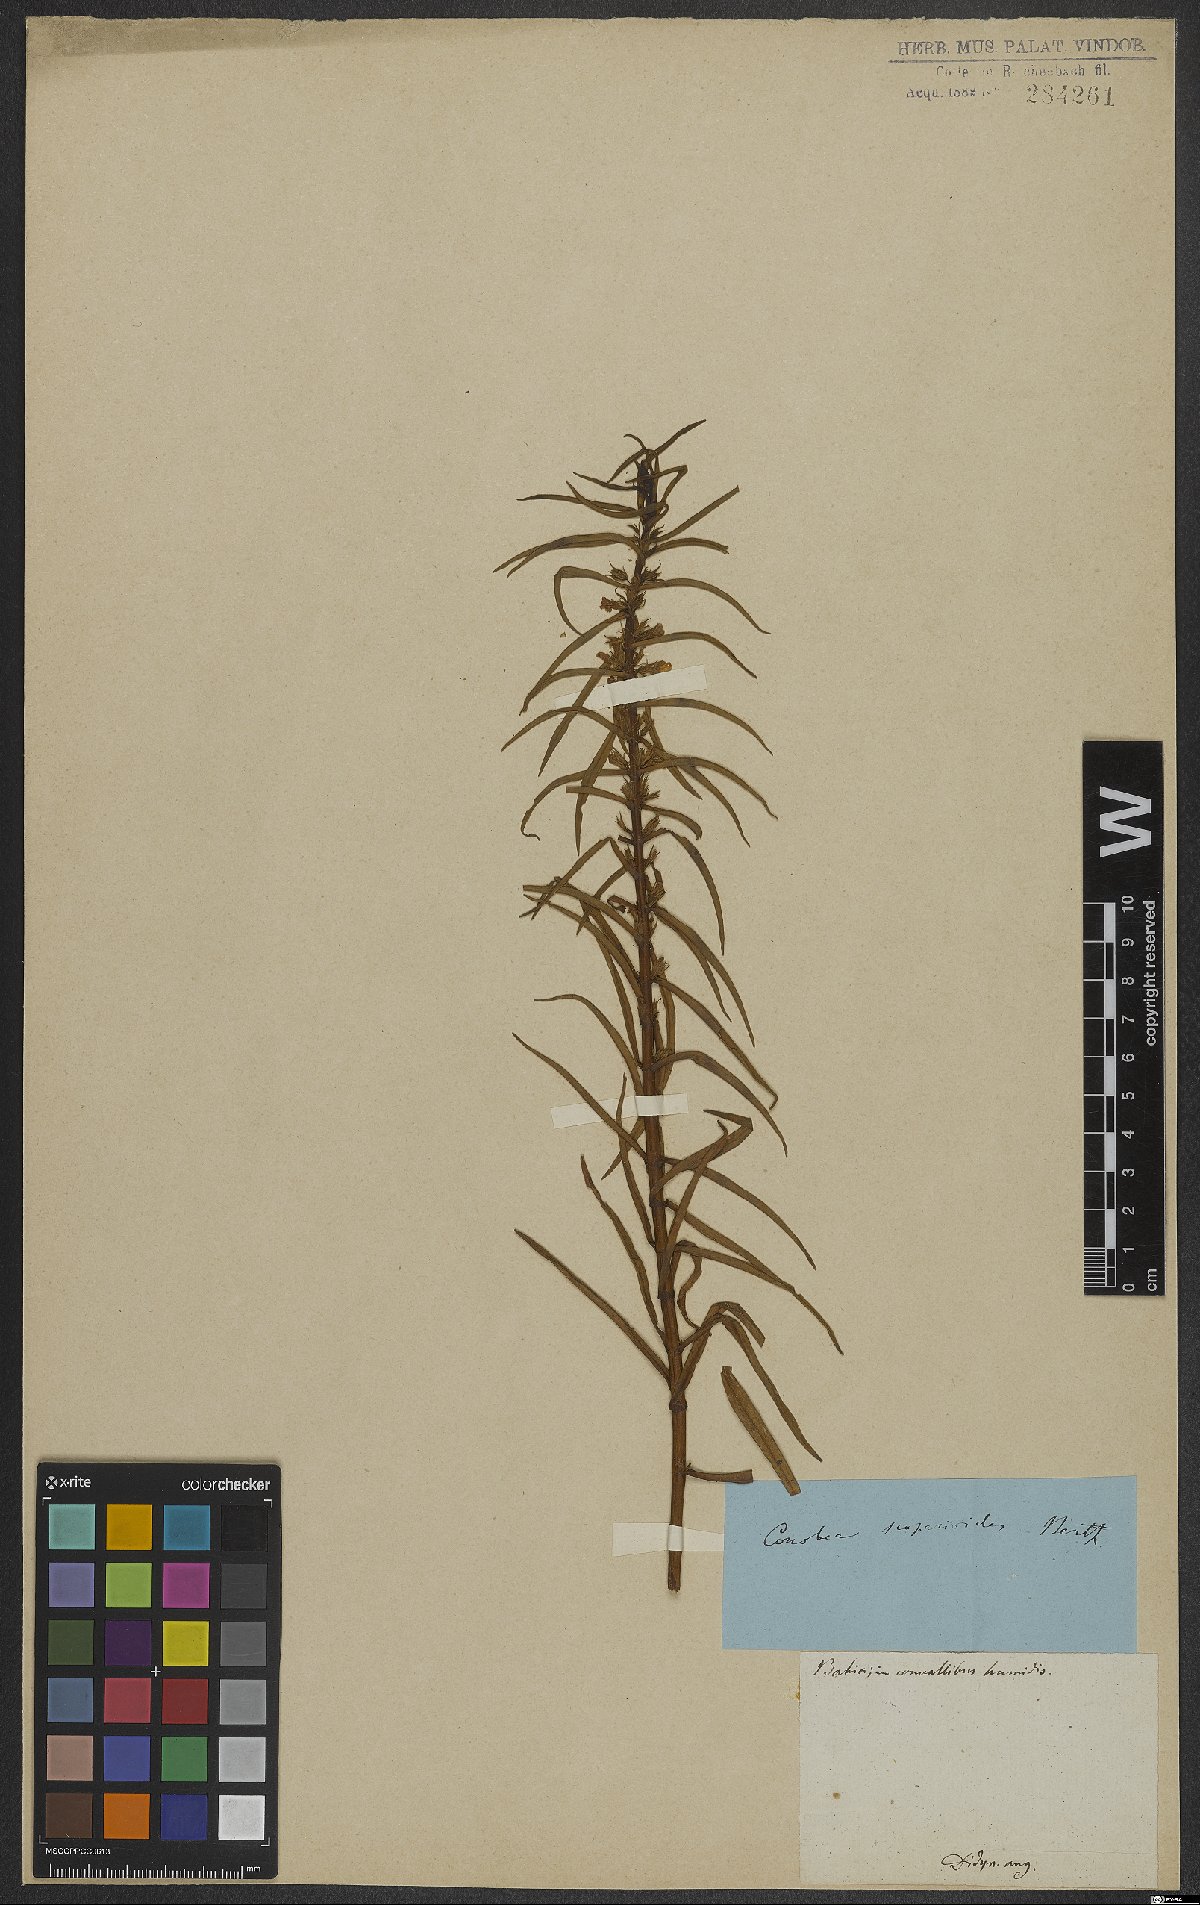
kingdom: Plantae
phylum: Tracheophyta
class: Magnoliopsida
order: Lamiales
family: Plantaginaceae
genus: Conobea
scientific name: Conobea scoparioides
